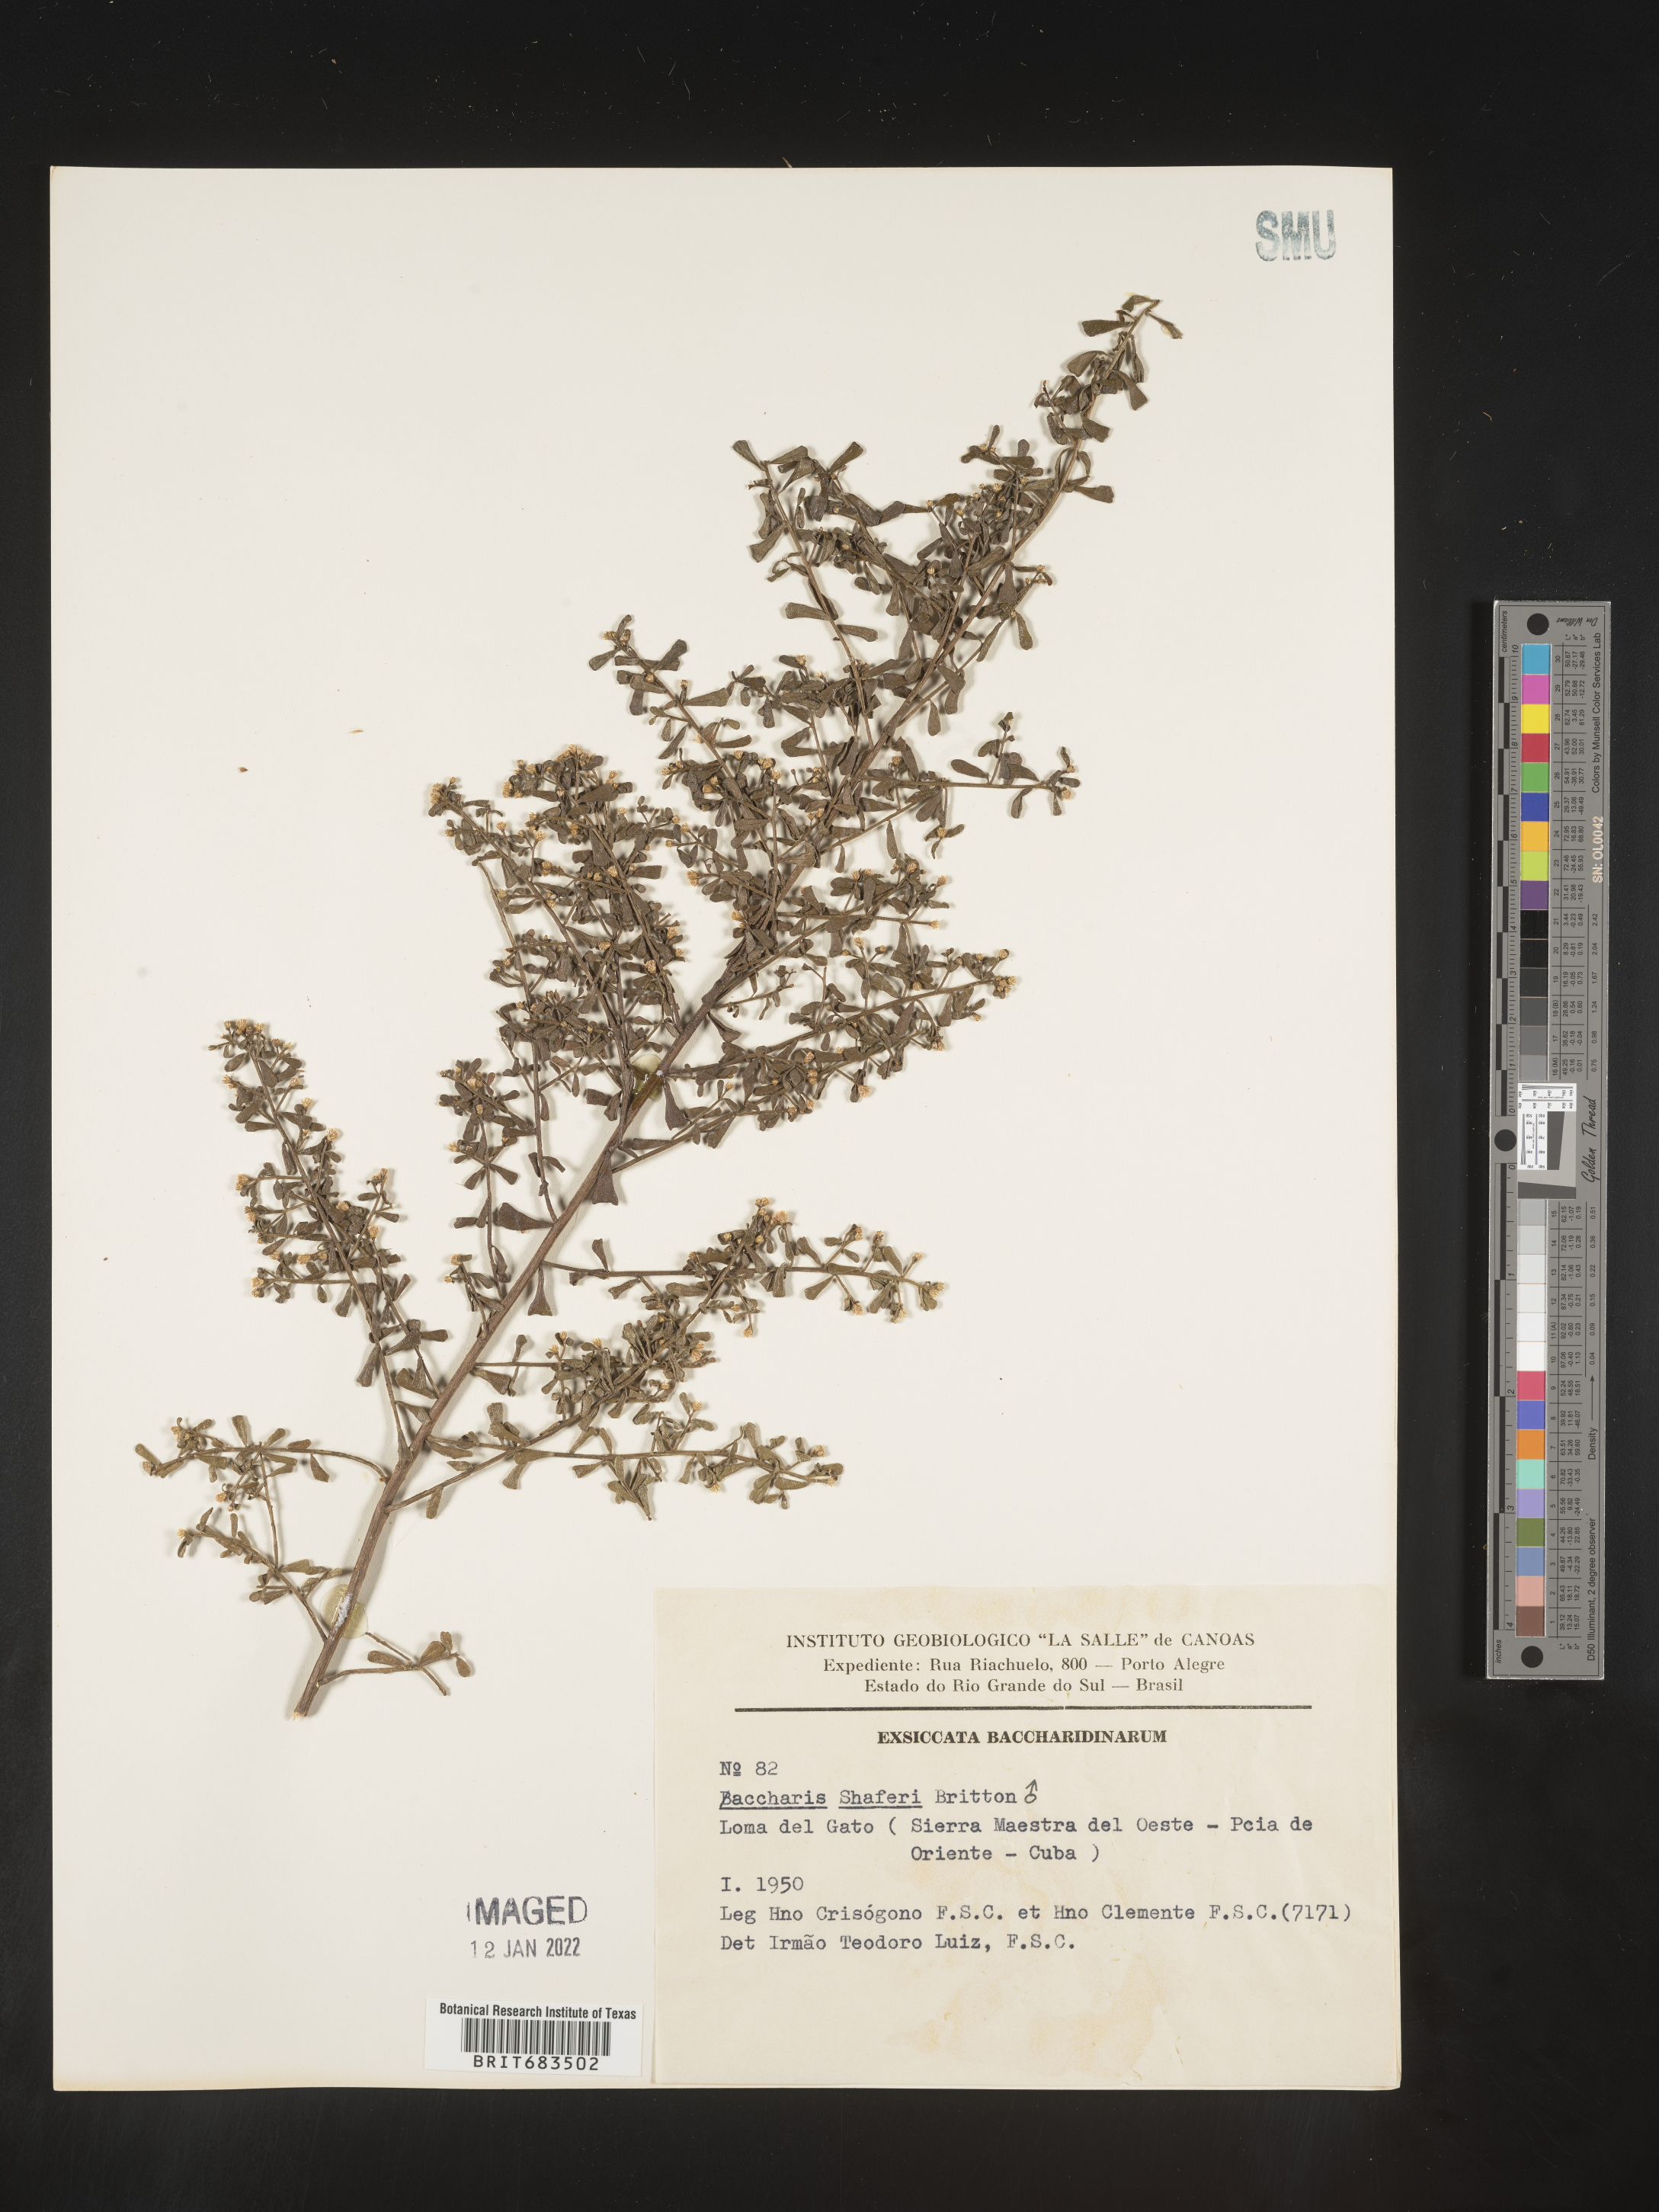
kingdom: Plantae
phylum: Tracheophyta
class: Magnoliopsida
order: Asterales
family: Asteraceae
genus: Baccharis
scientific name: Baccharis
